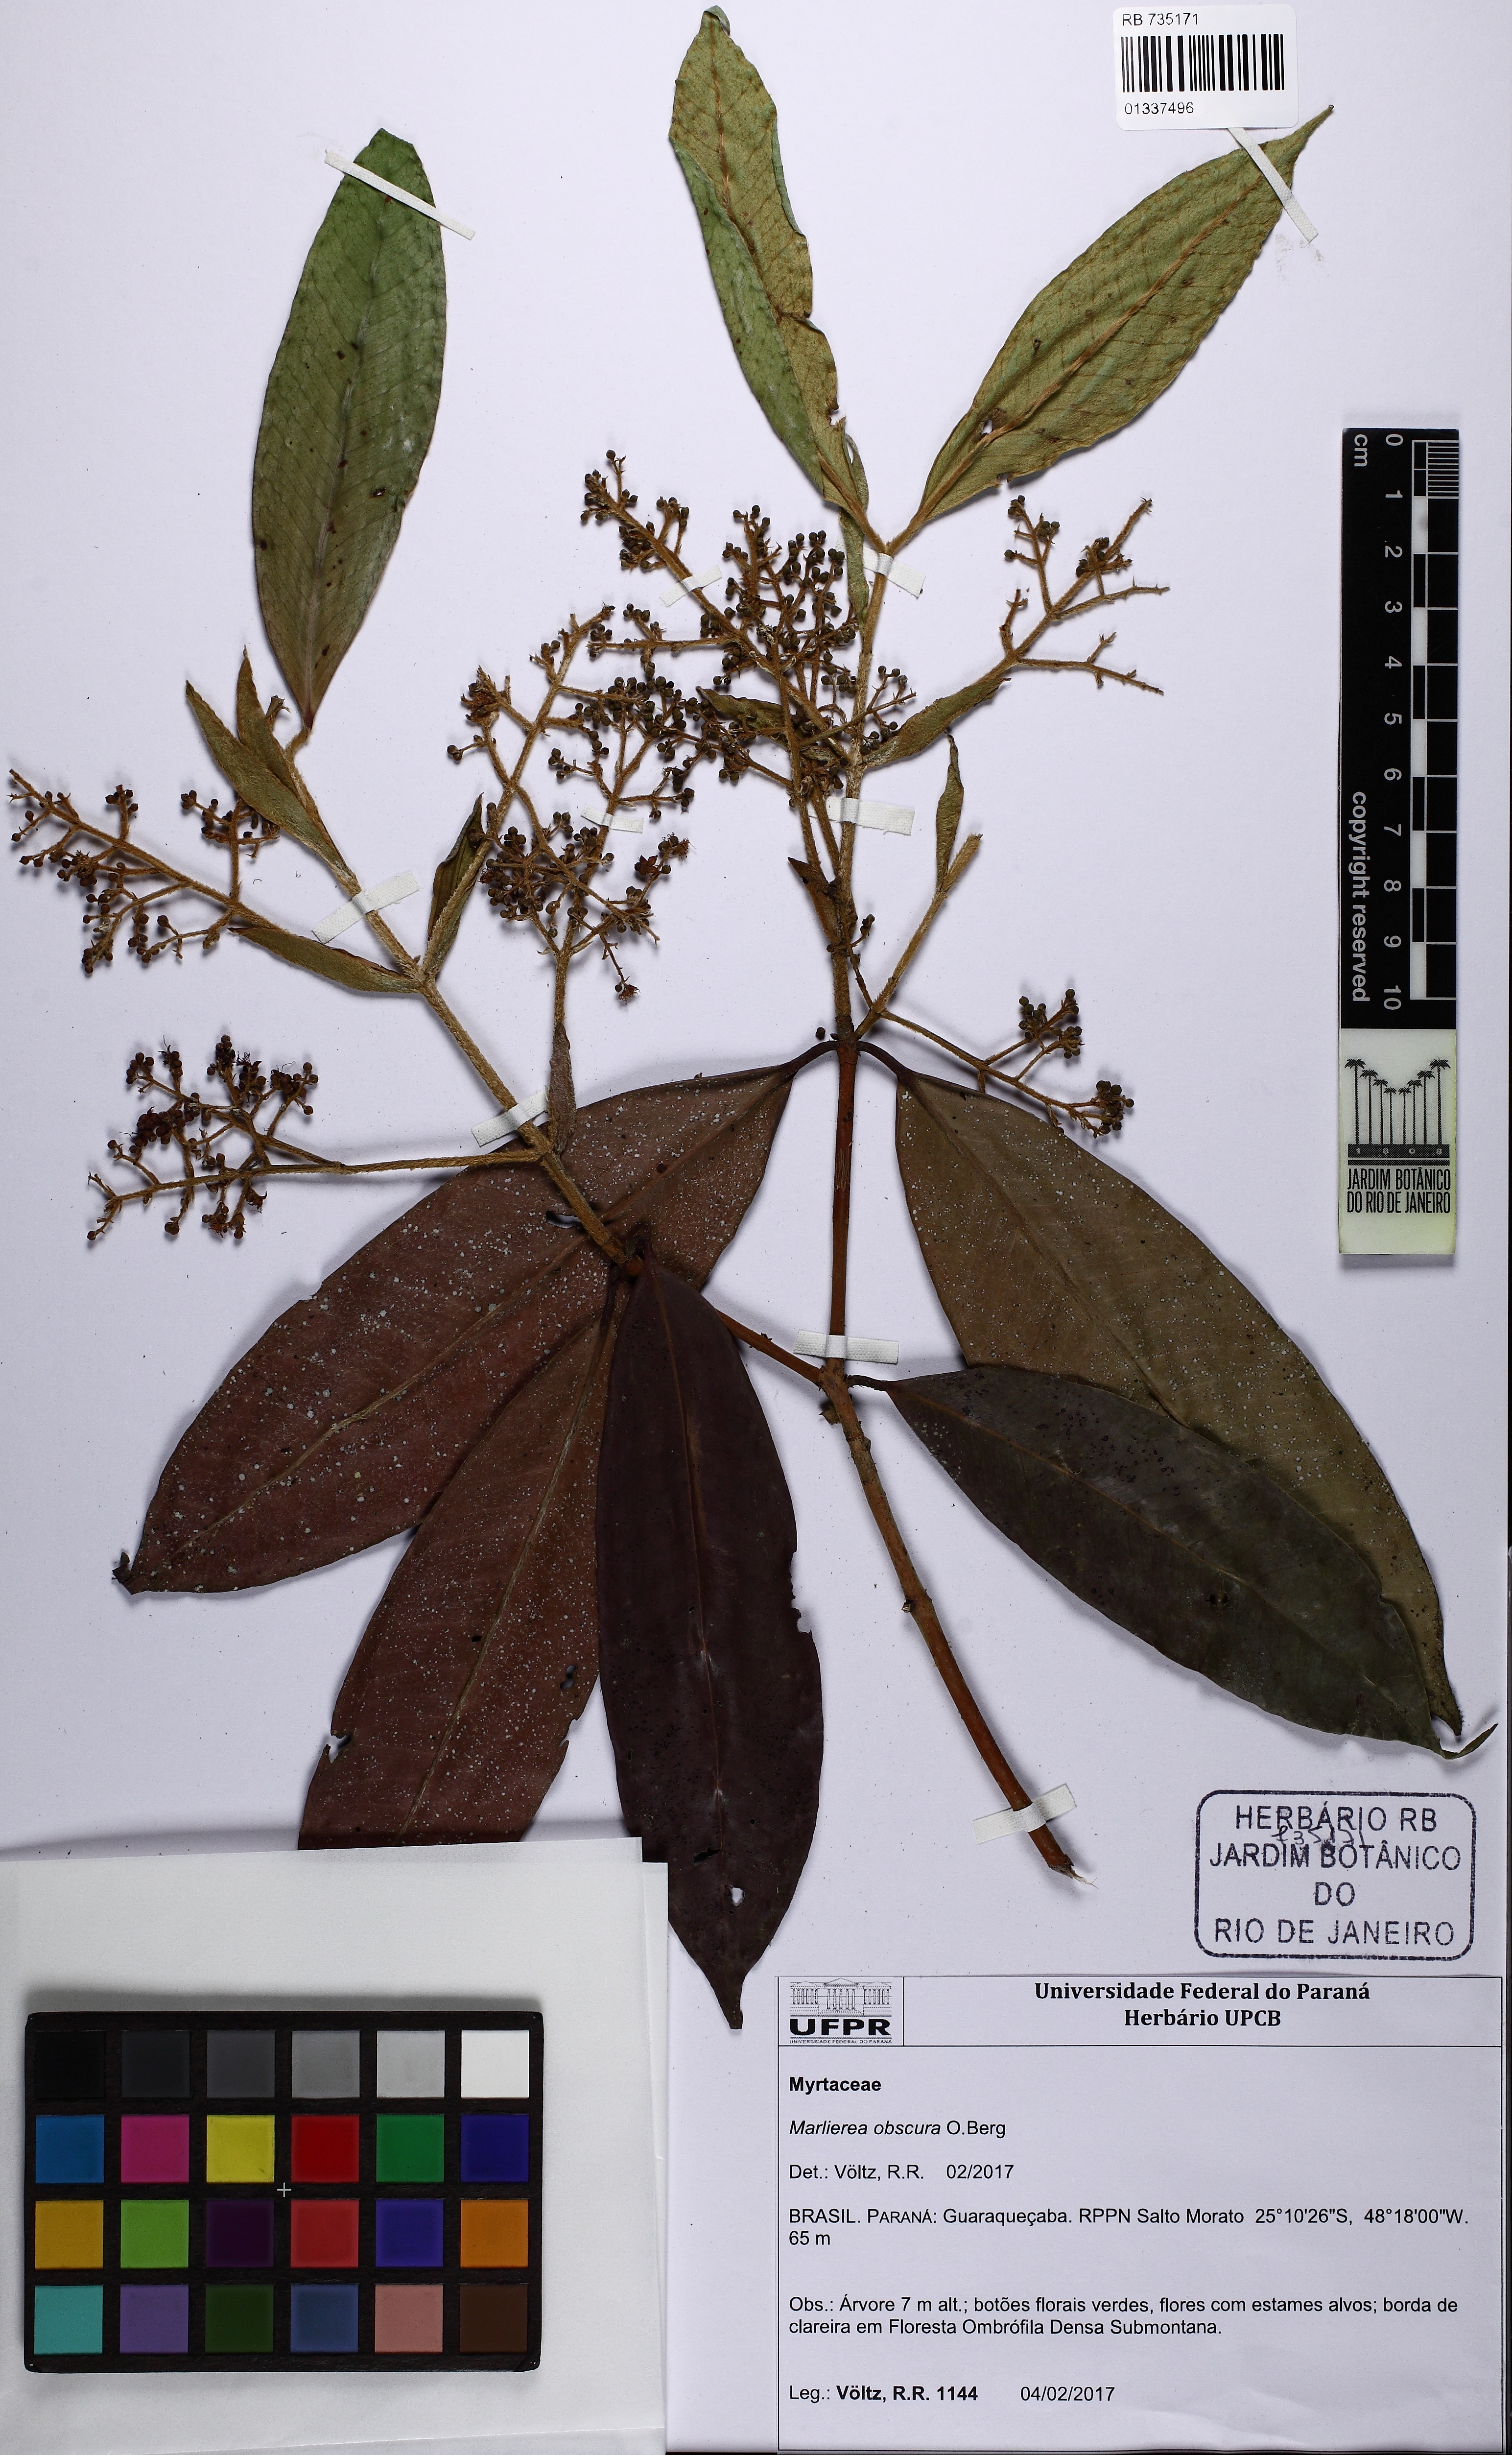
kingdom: Plantae
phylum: Tracheophyta
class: Magnoliopsida
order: Myrtales
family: Myrtaceae
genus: Myrcia
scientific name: Myrcia neoriedeliana
